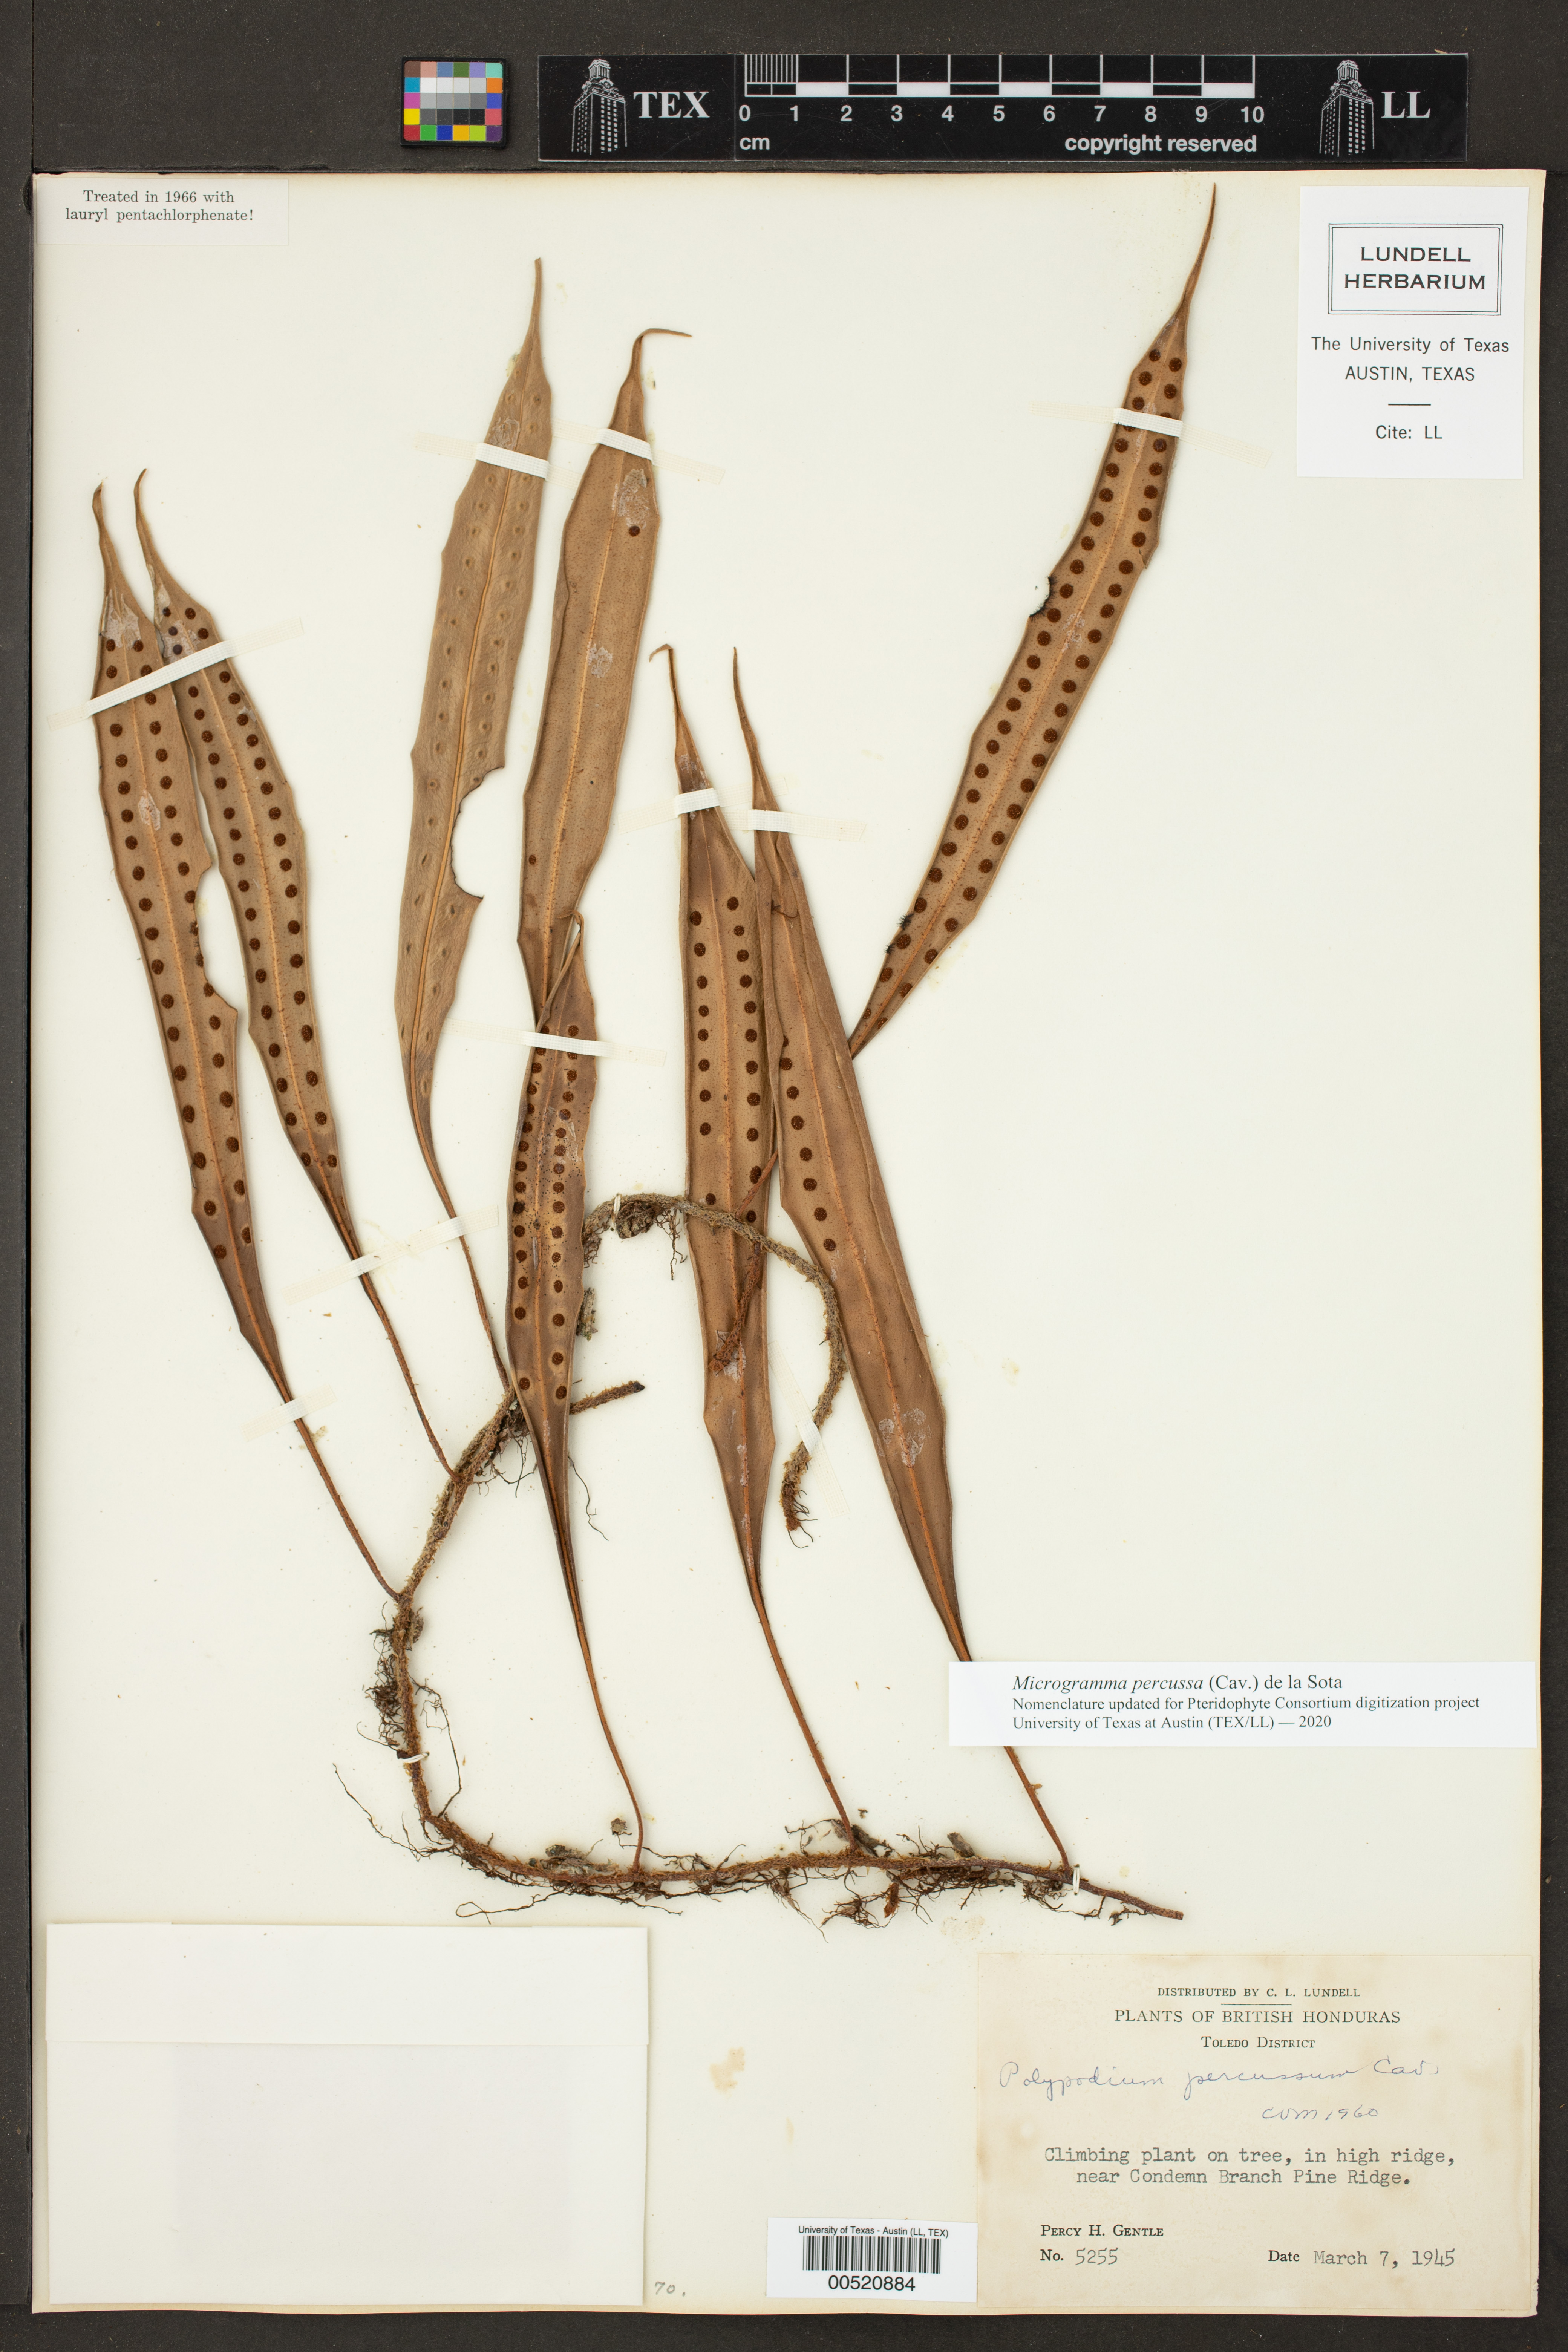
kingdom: Plantae
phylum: Tracheophyta
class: Polypodiopsida
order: Polypodiales
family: Polypodiaceae
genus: Microgramma
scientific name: Microgramma percussa
